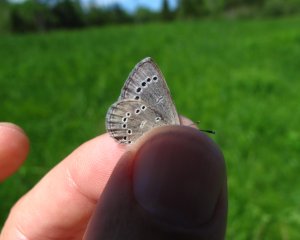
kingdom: Animalia
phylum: Arthropoda
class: Insecta
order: Lepidoptera
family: Lycaenidae
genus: Glaucopsyche
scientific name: Glaucopsyche lygdamus
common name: Silvery Blue
